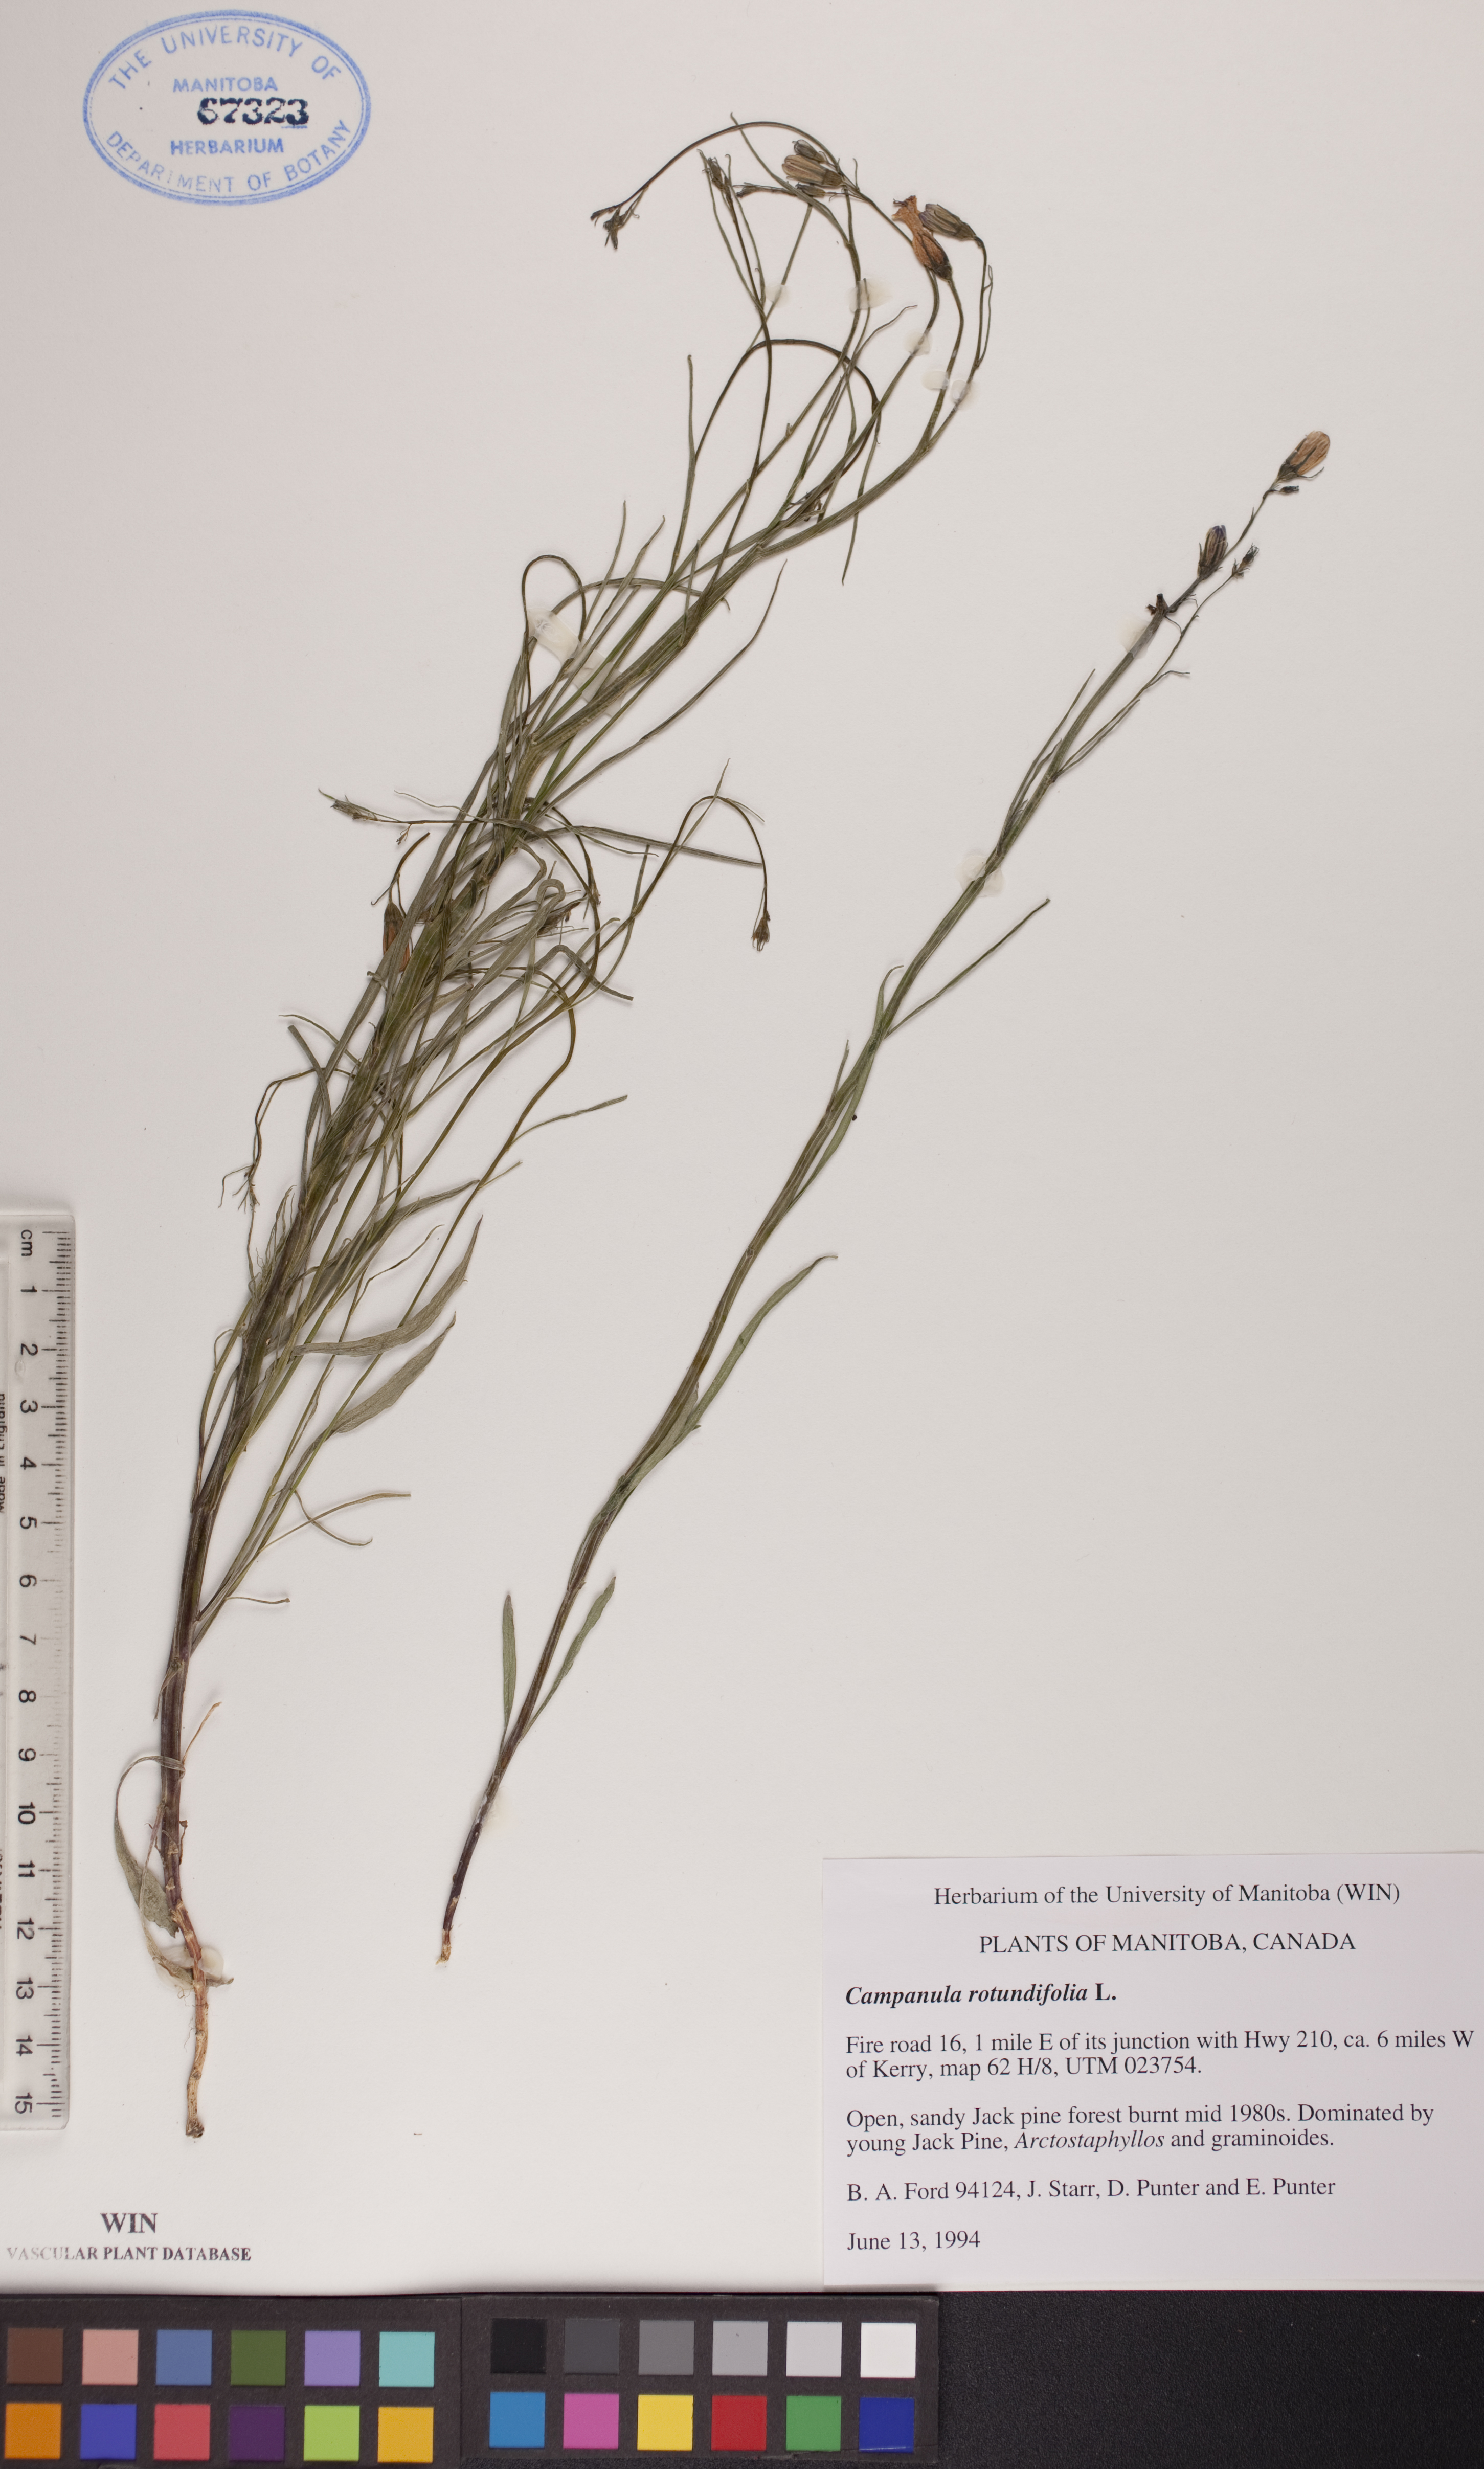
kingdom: Plantae
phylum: Tracheophyta
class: Magnoliopsida
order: Asterales
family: Campanulaceae
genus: Campanula
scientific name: Campanula rotundifolia
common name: Harebell
